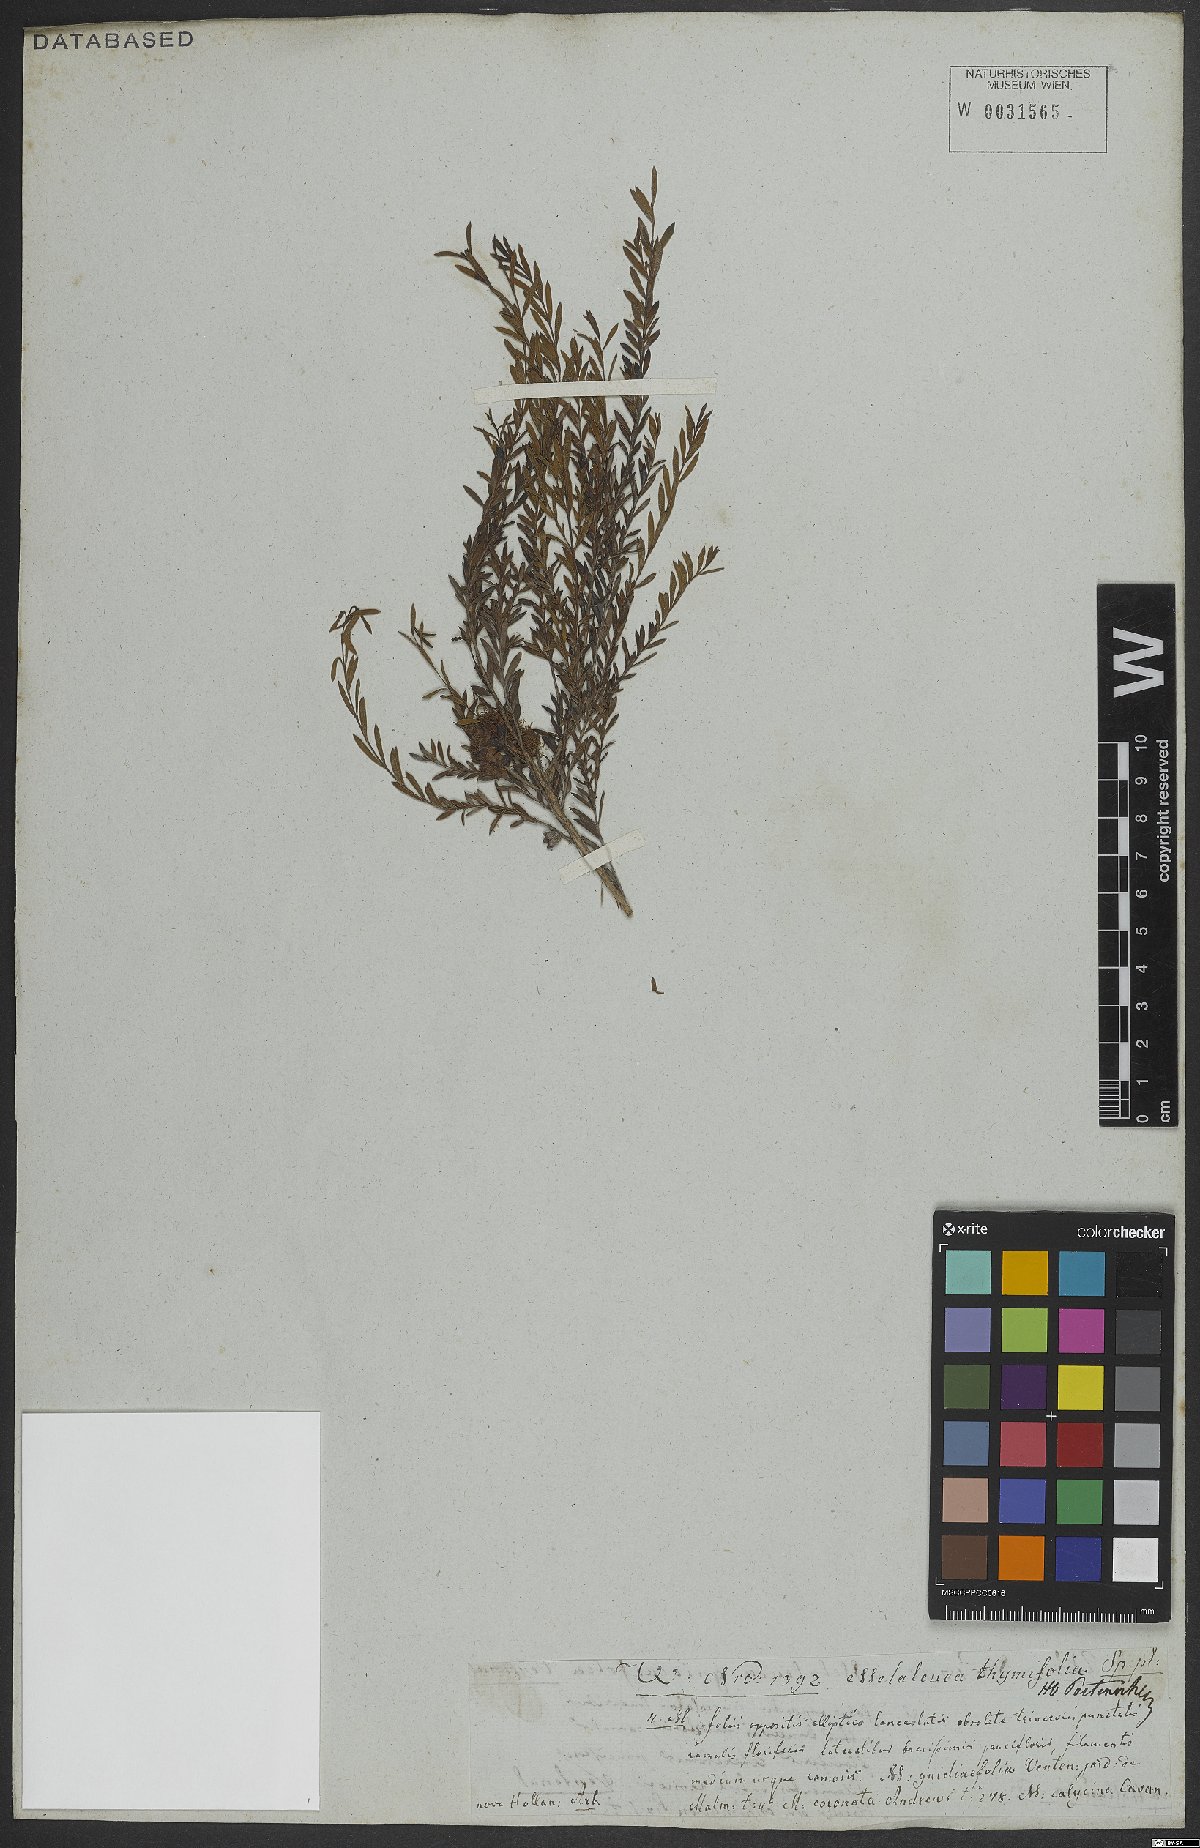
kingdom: Plantae
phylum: Tracheophyta
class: Magnoliopsida
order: Myrtales
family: Myrtaceae
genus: Melaleuca
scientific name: Melaleuca thymifolia
